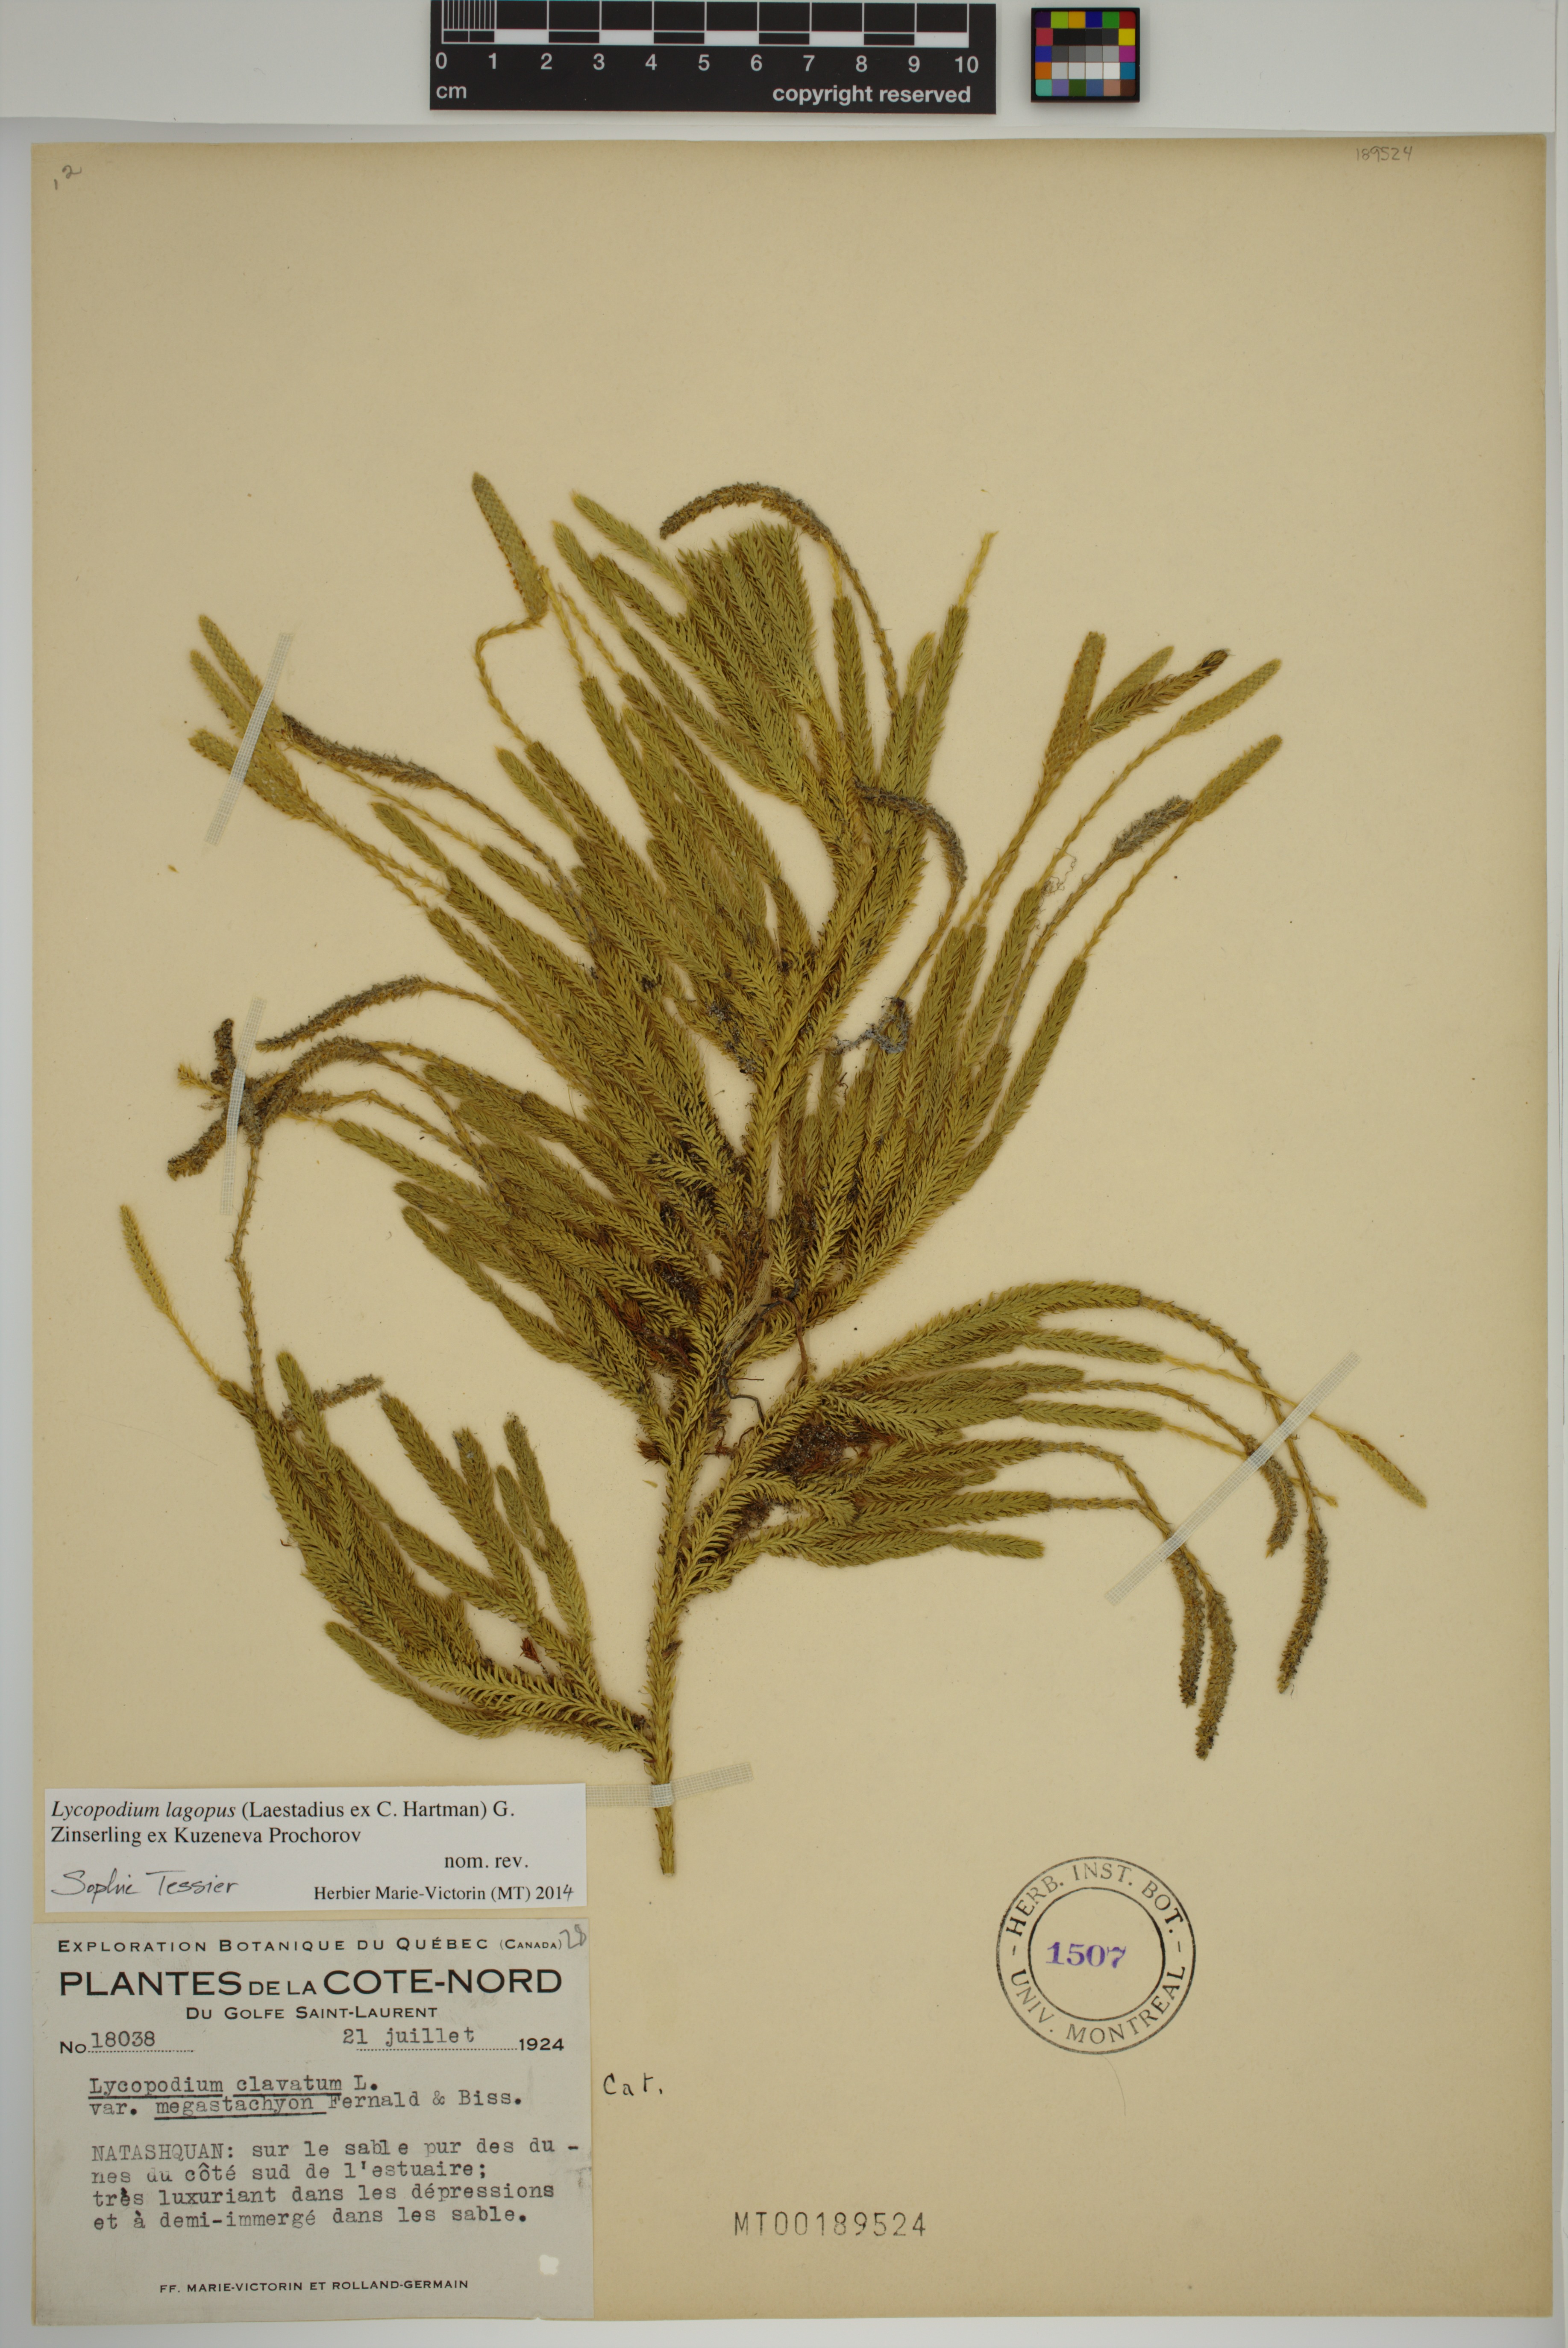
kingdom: Plantae
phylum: Tracheophyta
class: Lycopodiopsida
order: Lycopodiales
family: Lycopodiaceae
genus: Lycopodium
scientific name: Lycopodium lagopus
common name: One-cone clubmoss
